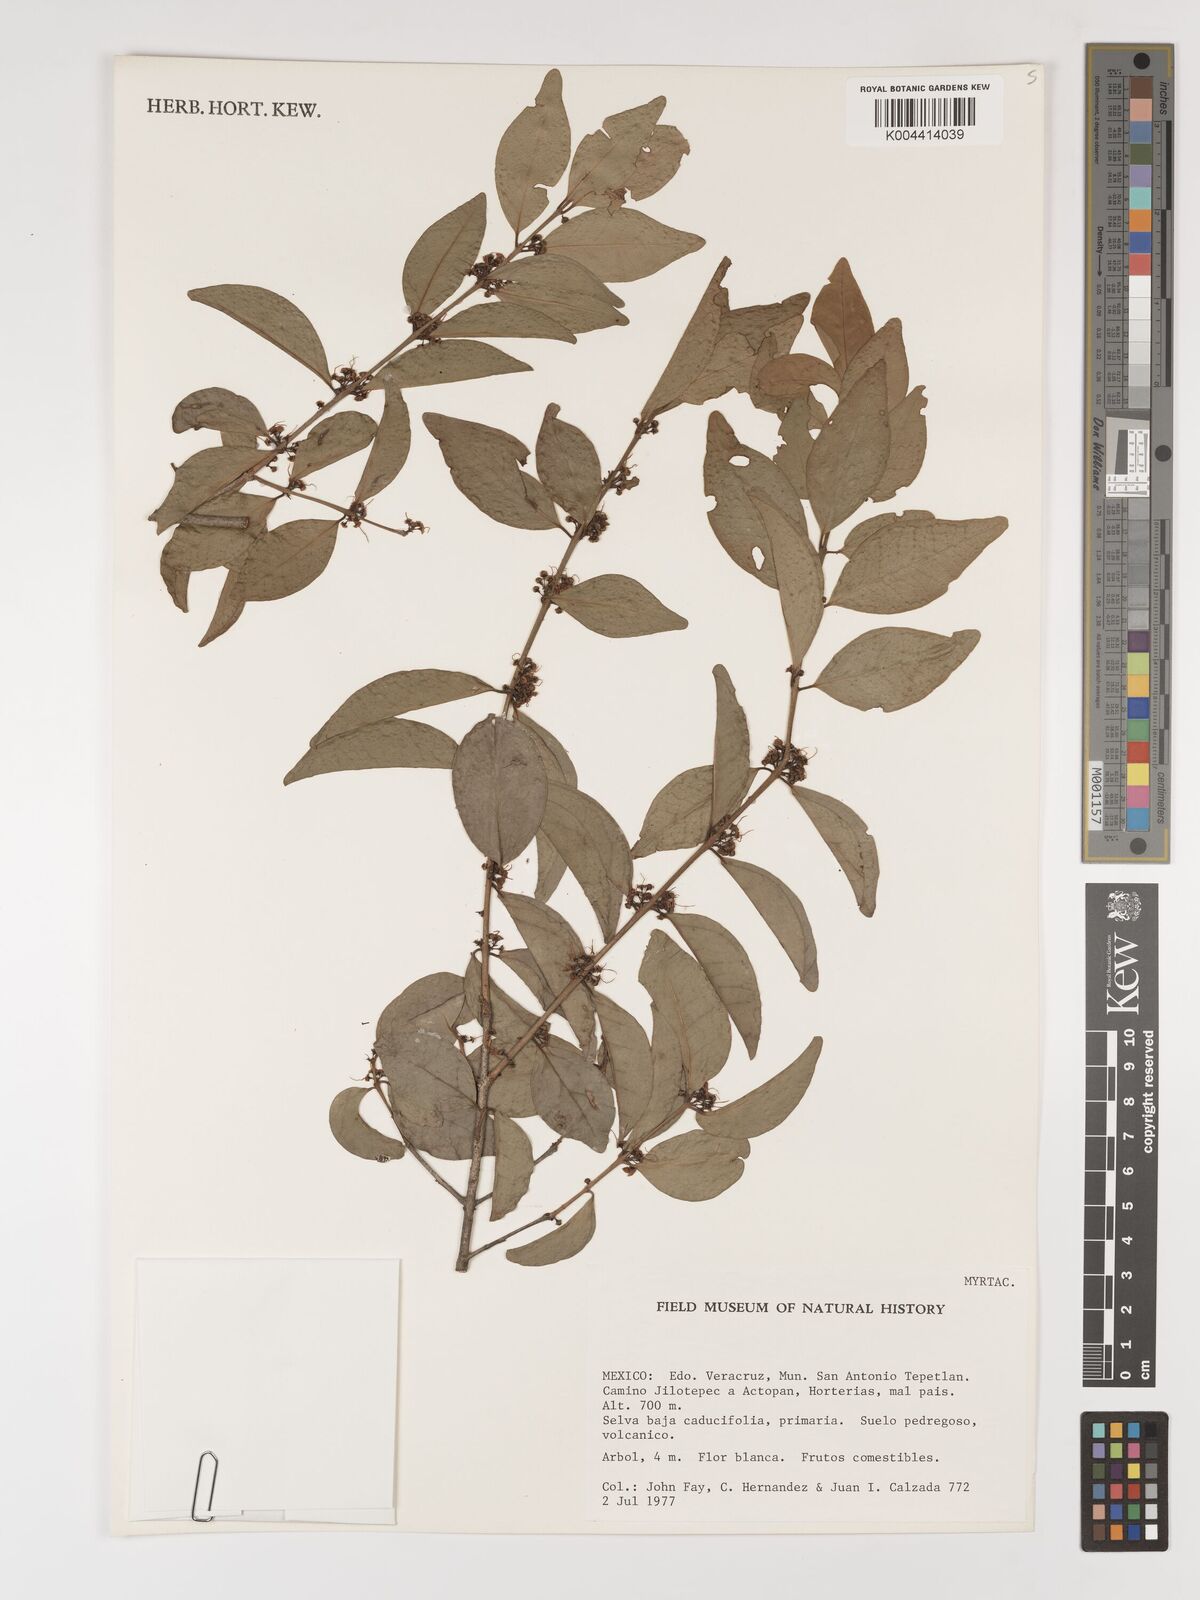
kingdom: Plantae
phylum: Tracheophyta
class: Magnoliopsida
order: Myrtales
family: Myrtaceae
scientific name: Myrtaceae
